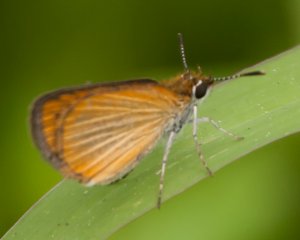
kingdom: Animalia
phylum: Arthropoda
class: Insecta
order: Lepidoptera
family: Hesperiidae
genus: Ancyloxypha
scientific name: Ancyloxypha numitor
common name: Least Skipper
